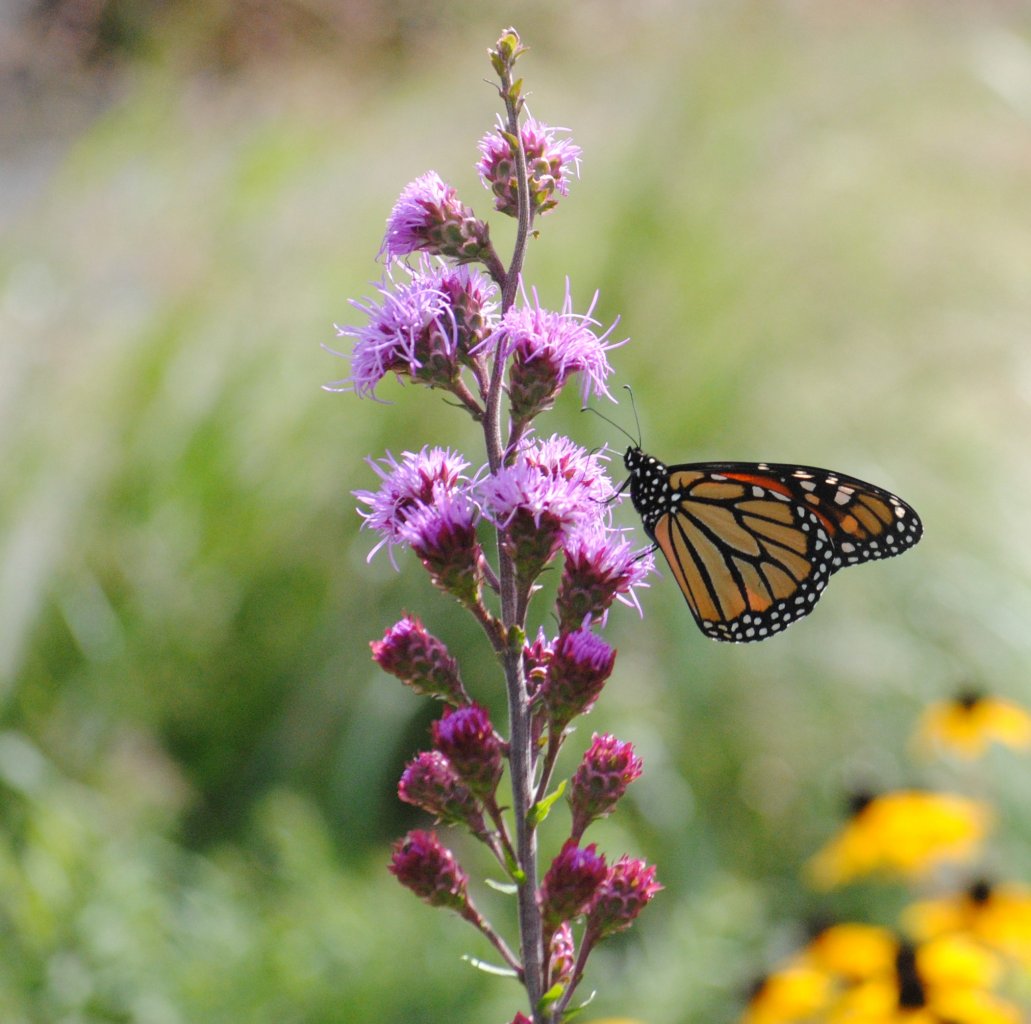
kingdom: Animalia
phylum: Arthropoda
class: Insecta
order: Lepidoptera
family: Nymphalidae
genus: Danaus
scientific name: Danaus plexippus
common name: Monarch
